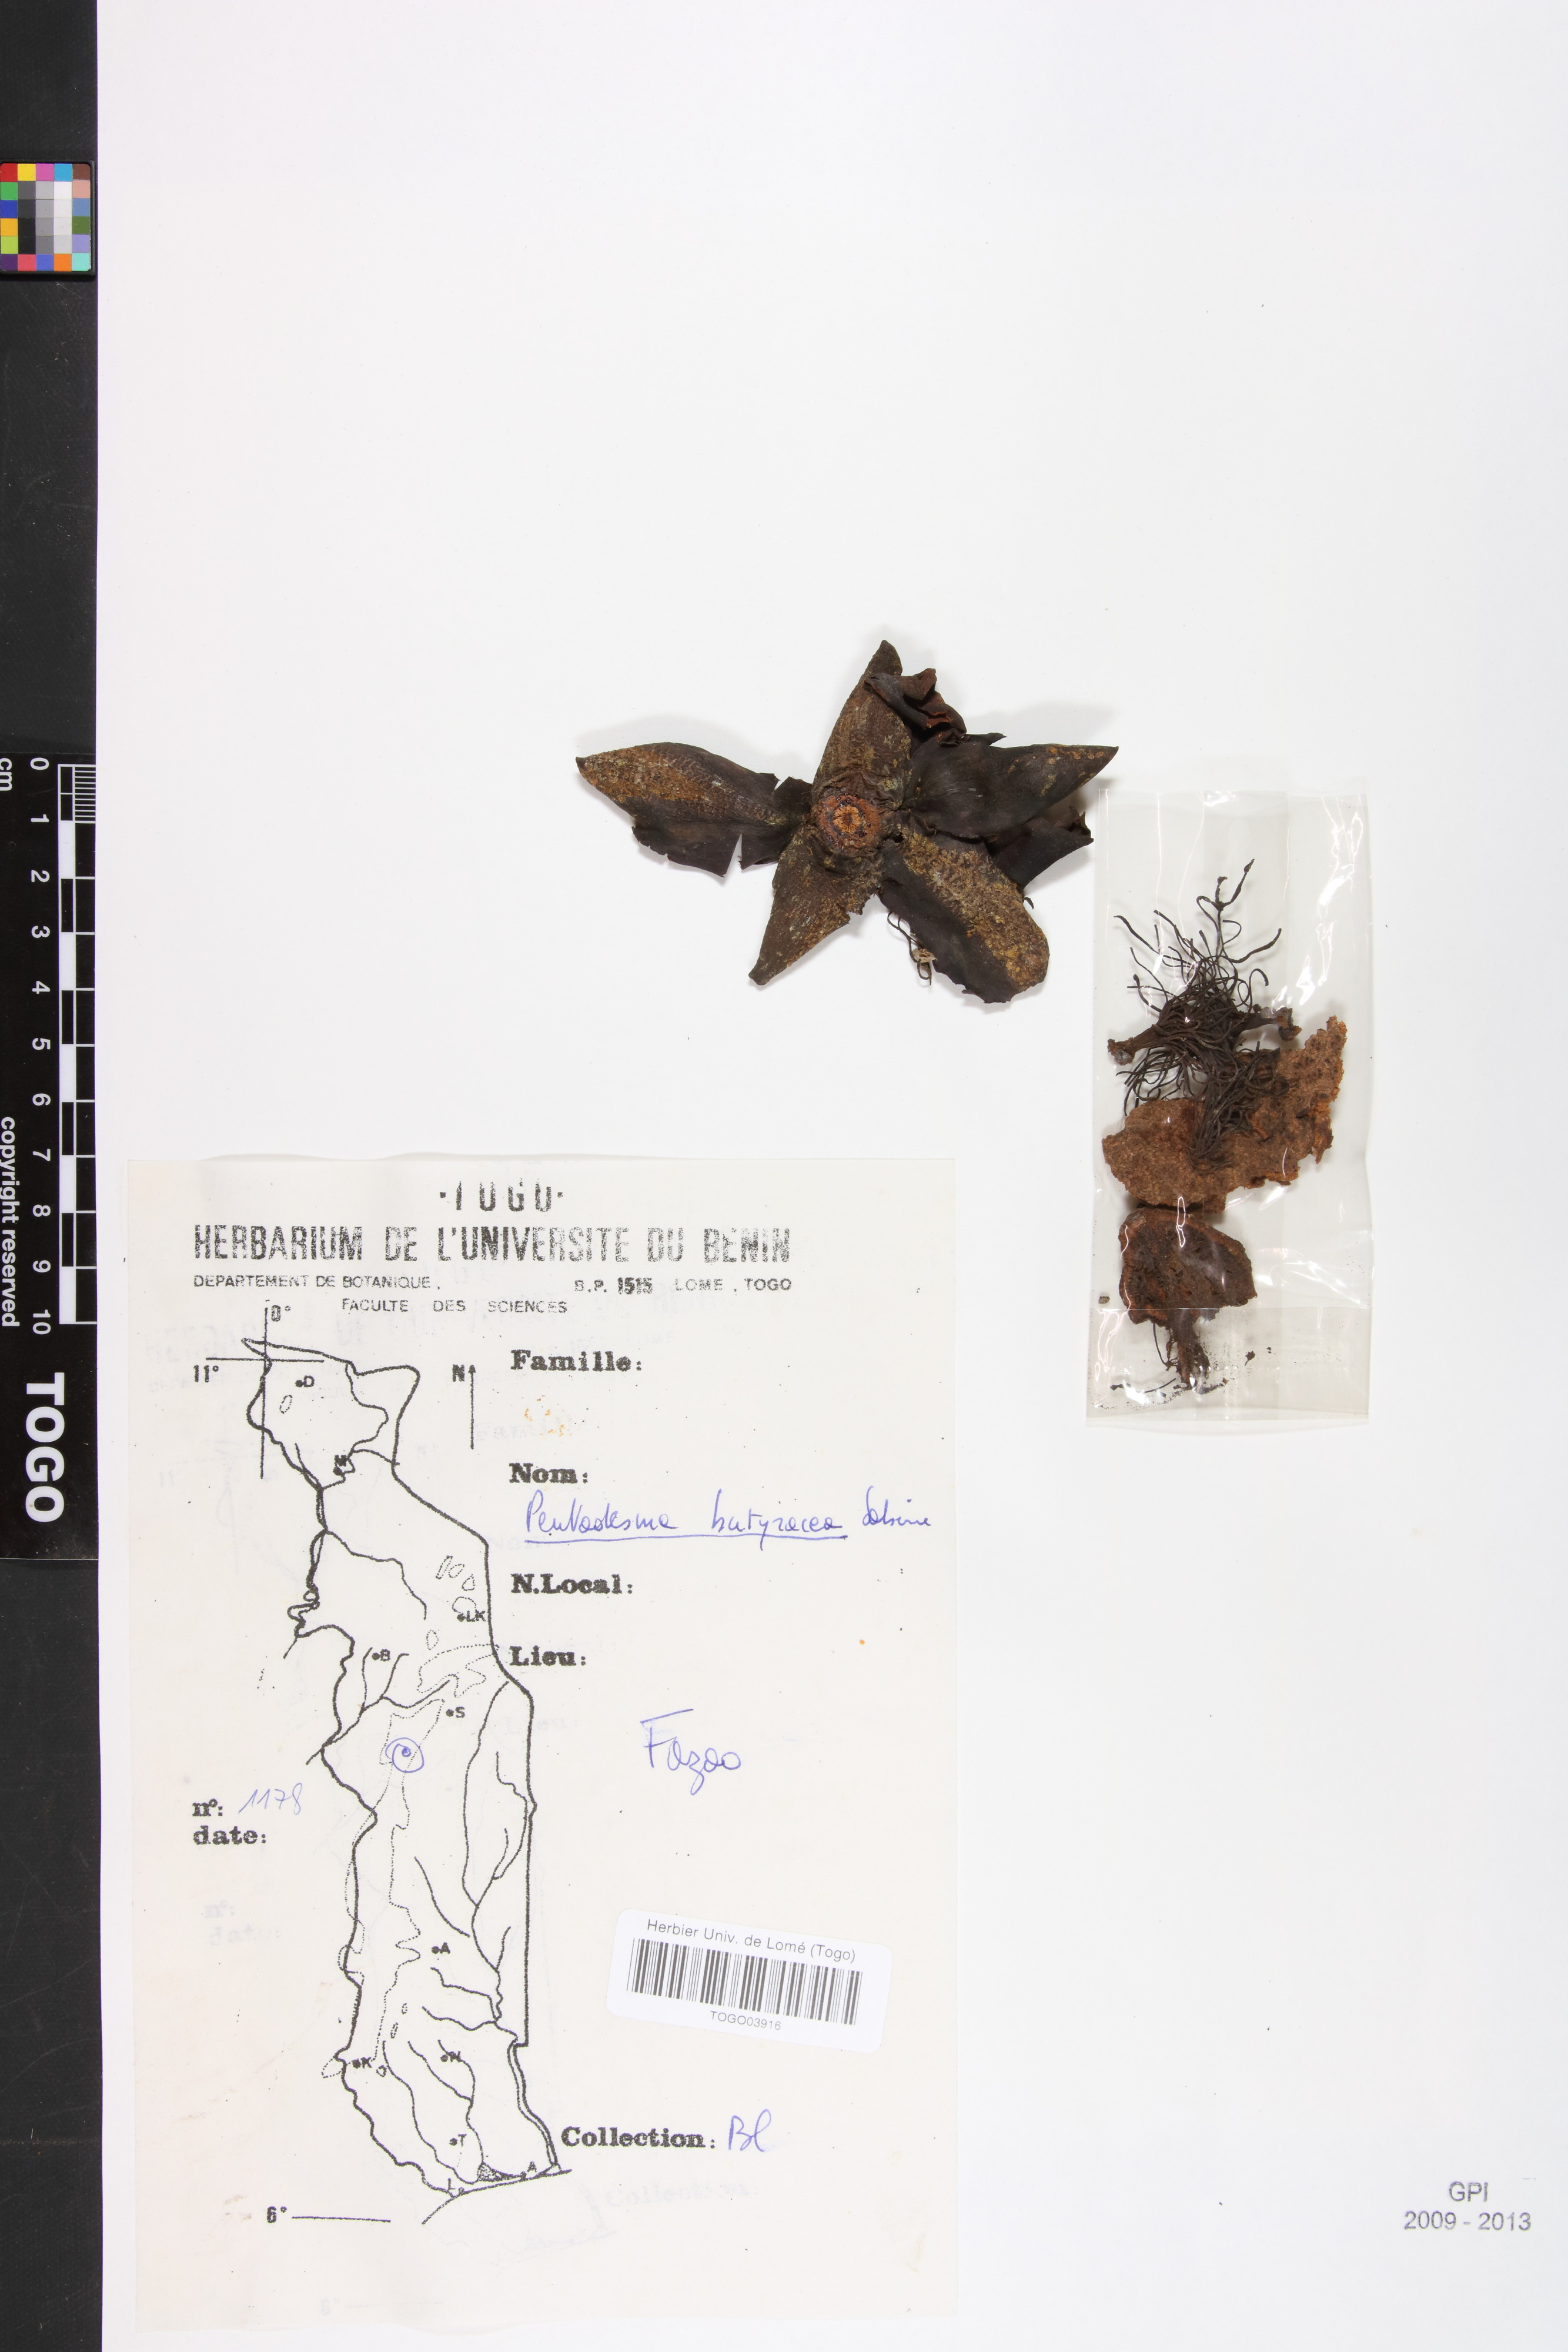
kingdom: Plantae
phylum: Tracheophyta
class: Magnoliopsida
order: Malpighiales
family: Clusiaceae
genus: Pentadesma
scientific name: Pentadesma butyracea
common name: Buttertree
